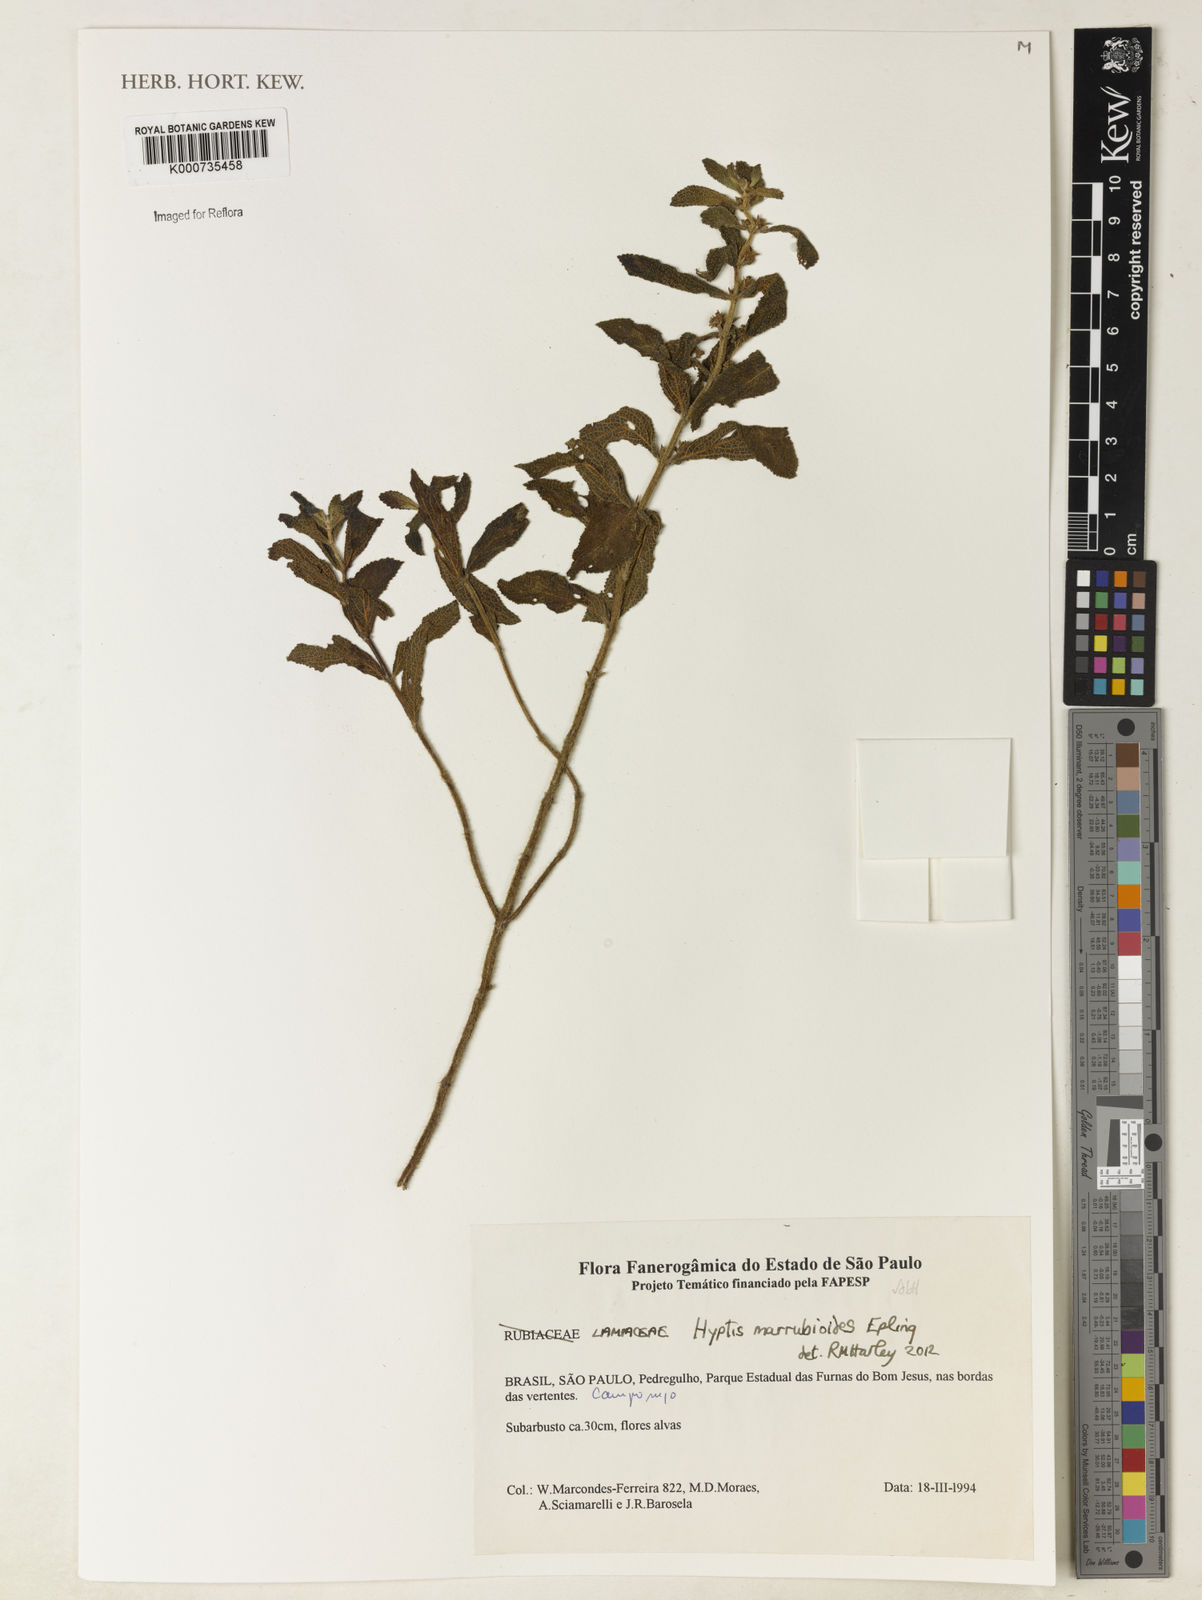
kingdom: Plantae
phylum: Tracheophyta
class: Magnoliopsida
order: Lamiales
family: Lamiaceae
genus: Hyptis
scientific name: Hyptis marrubioides
